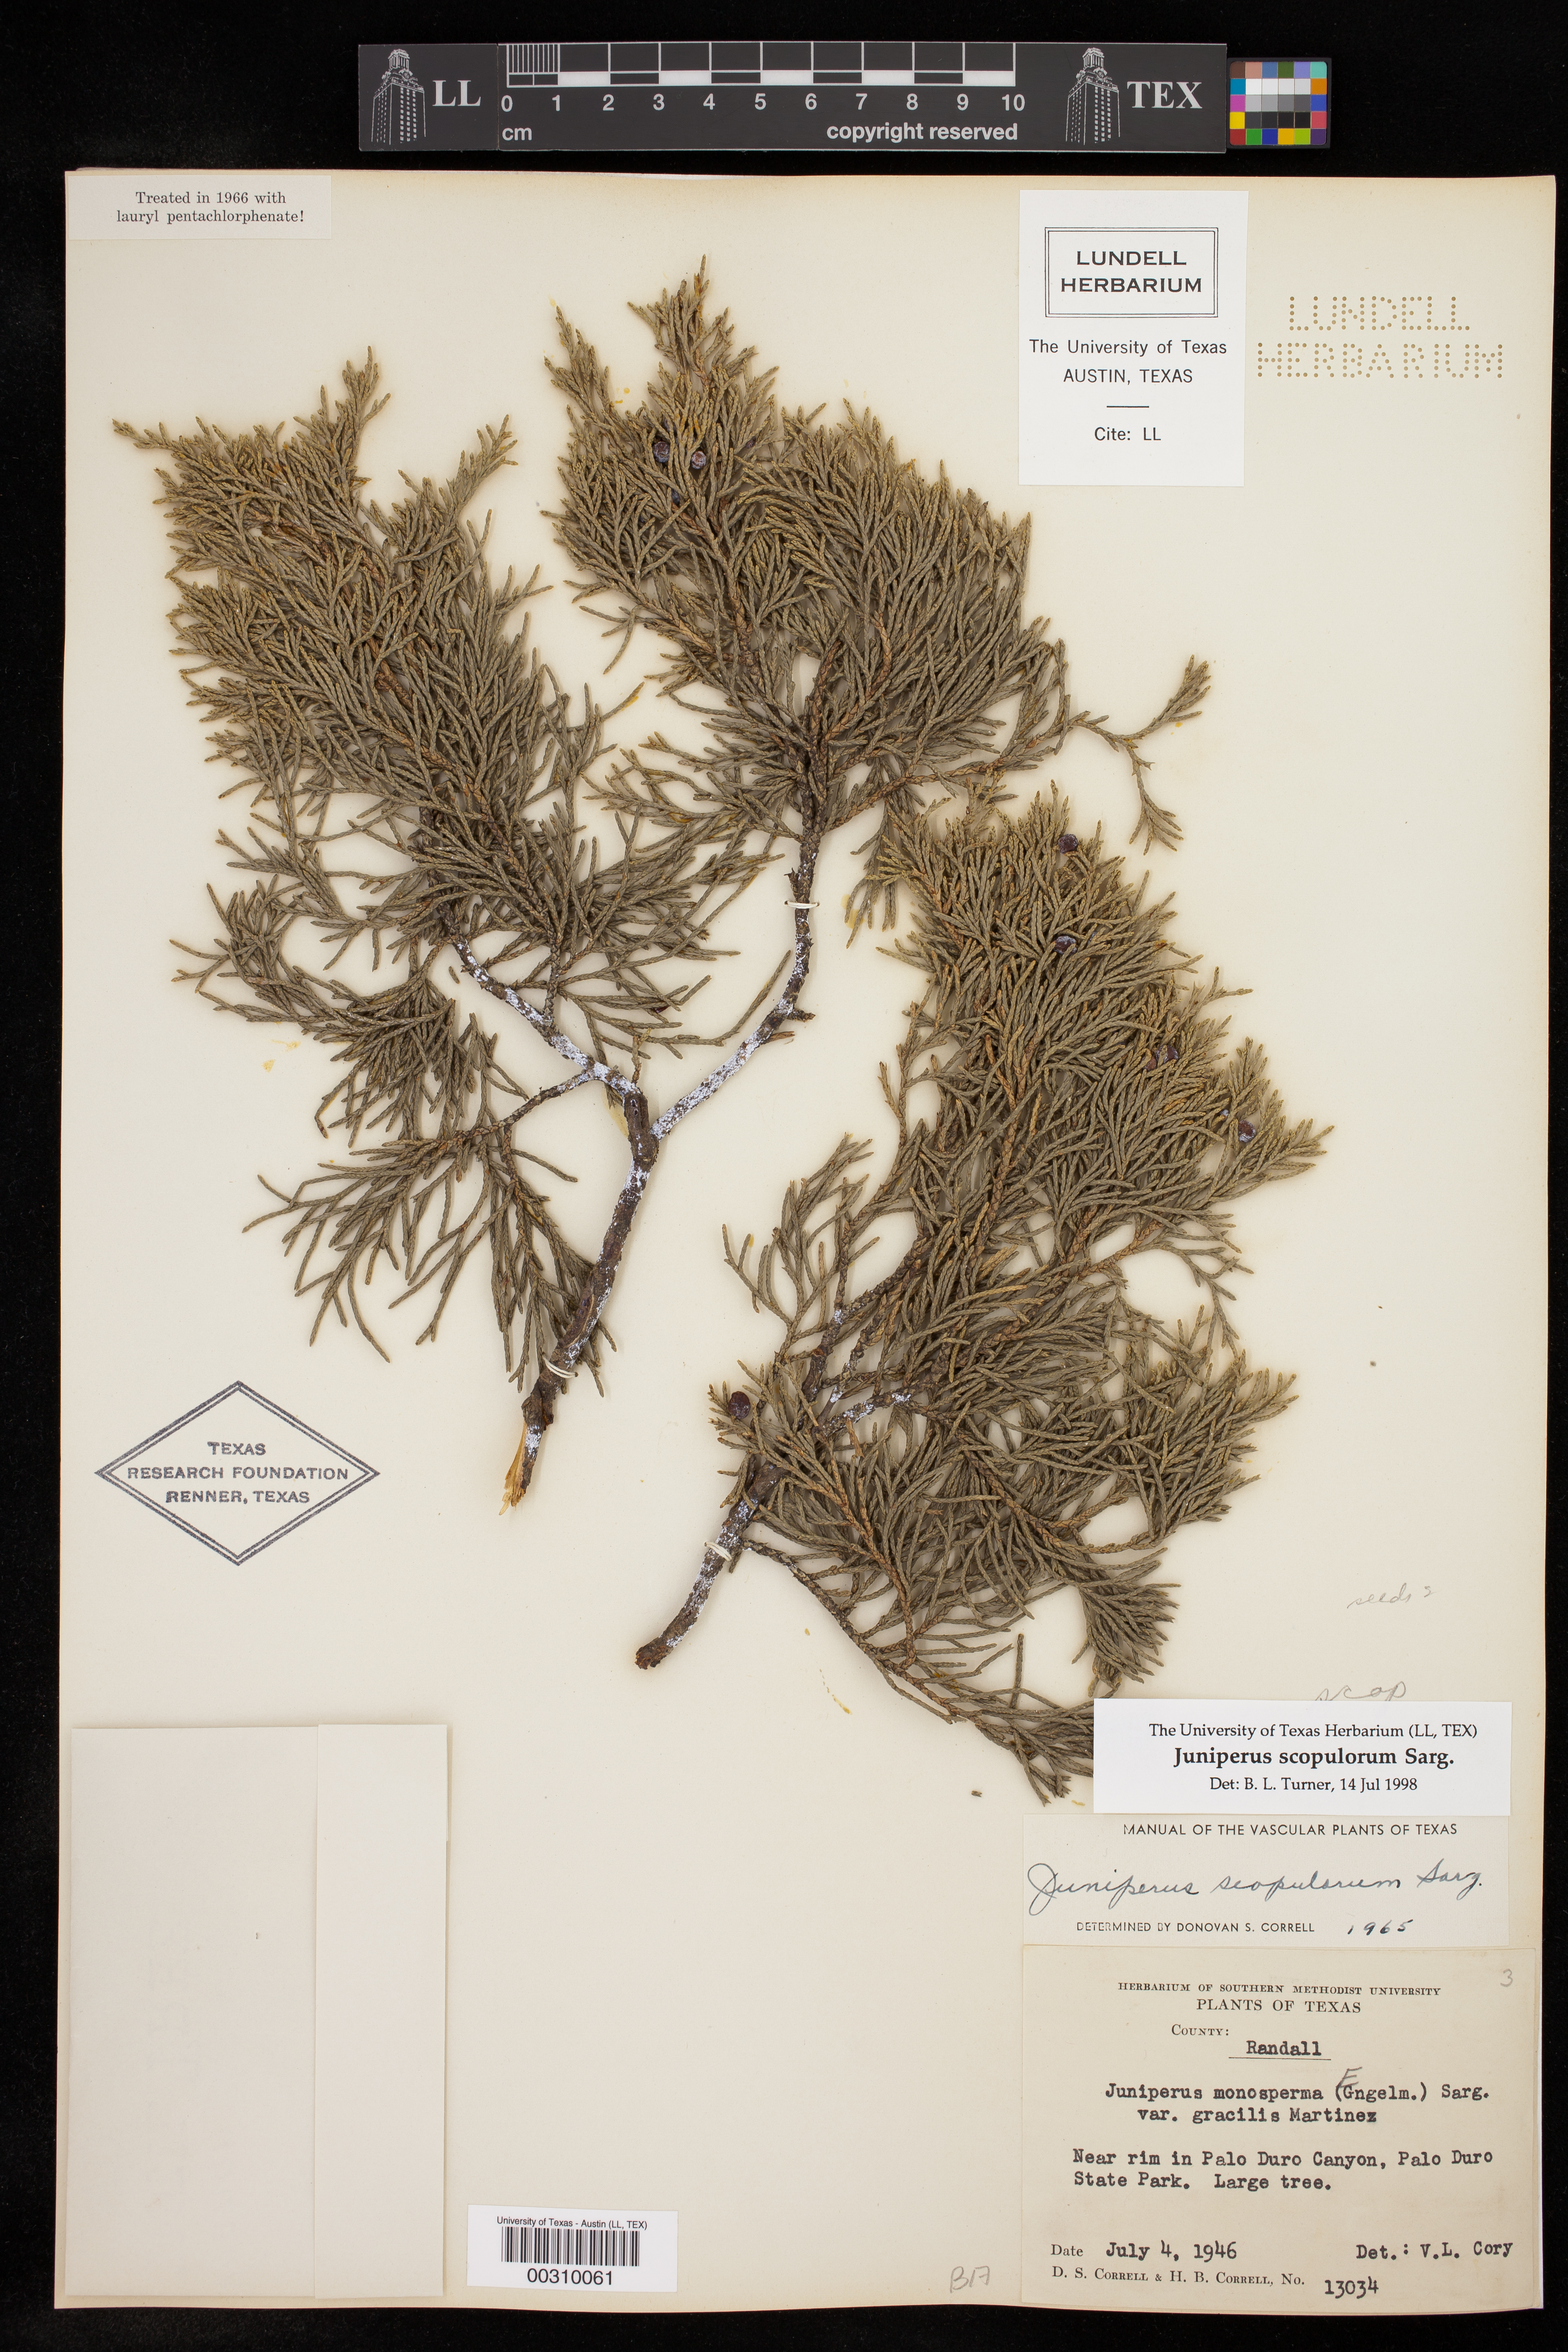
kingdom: Plantae
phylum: Tracheophyta
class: Pinopsida
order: Pinales
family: Cupressaceae
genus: Juniperus
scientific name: Juniperus scopulorum
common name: Rocky mountain juniper
